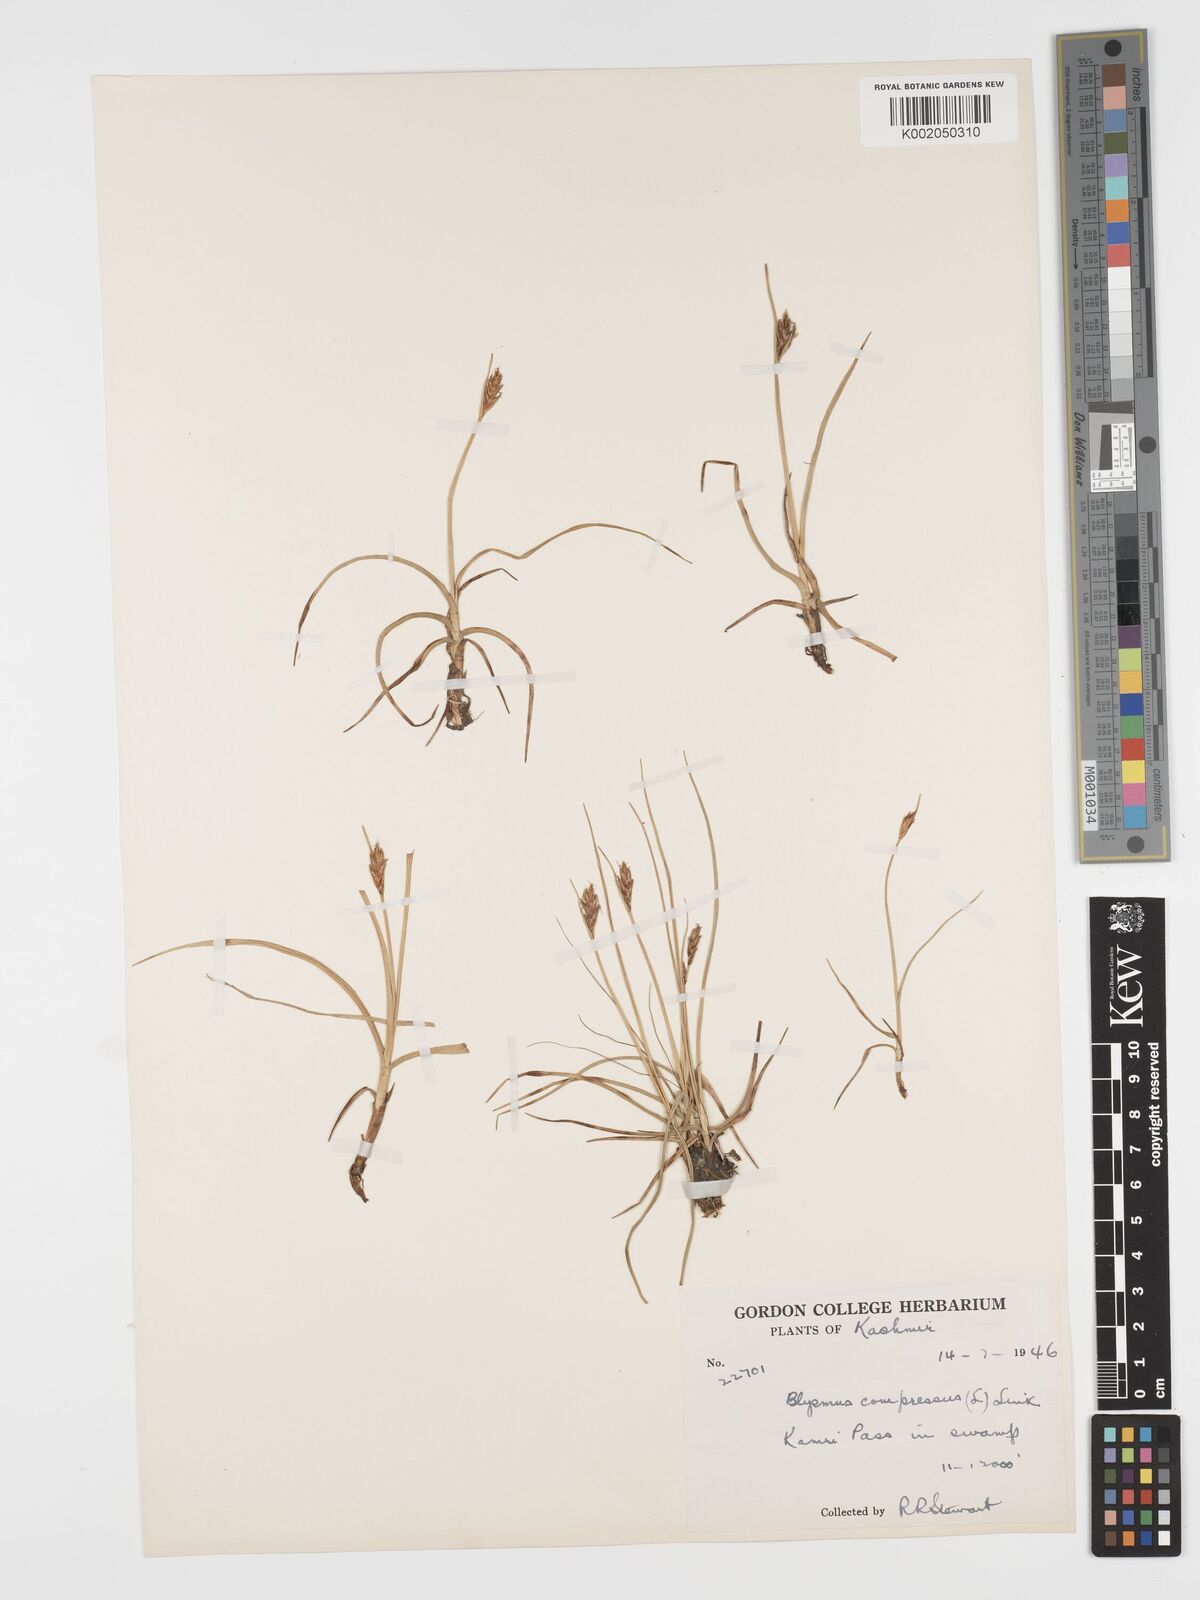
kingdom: Plantae
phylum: Tracheophyta
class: Liliopsida
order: Poales
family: Cyperaceae
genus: Blysmus
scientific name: Blysmus compressus
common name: Flat-sedge
